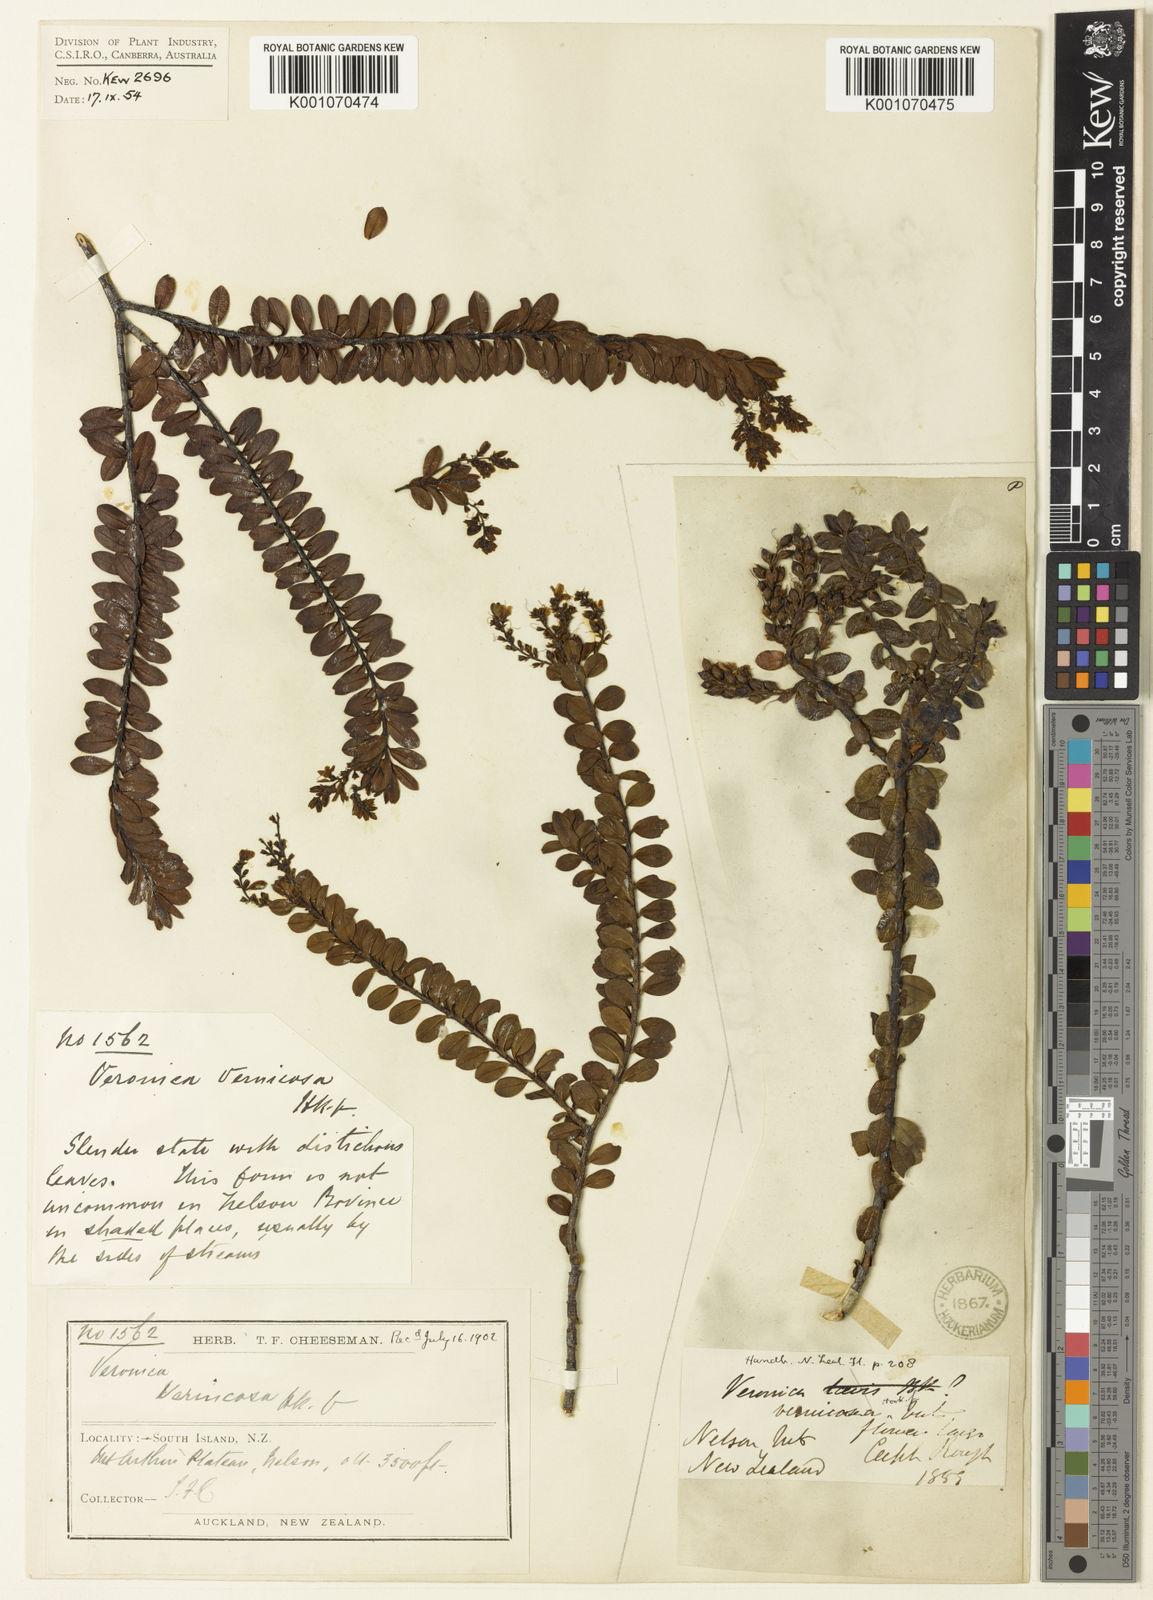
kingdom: Plantae
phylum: Tracheophyta
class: Magnoliopsida
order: Lamiales
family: Plantaginaceae
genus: Veronica
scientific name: Veronica vernicosa
